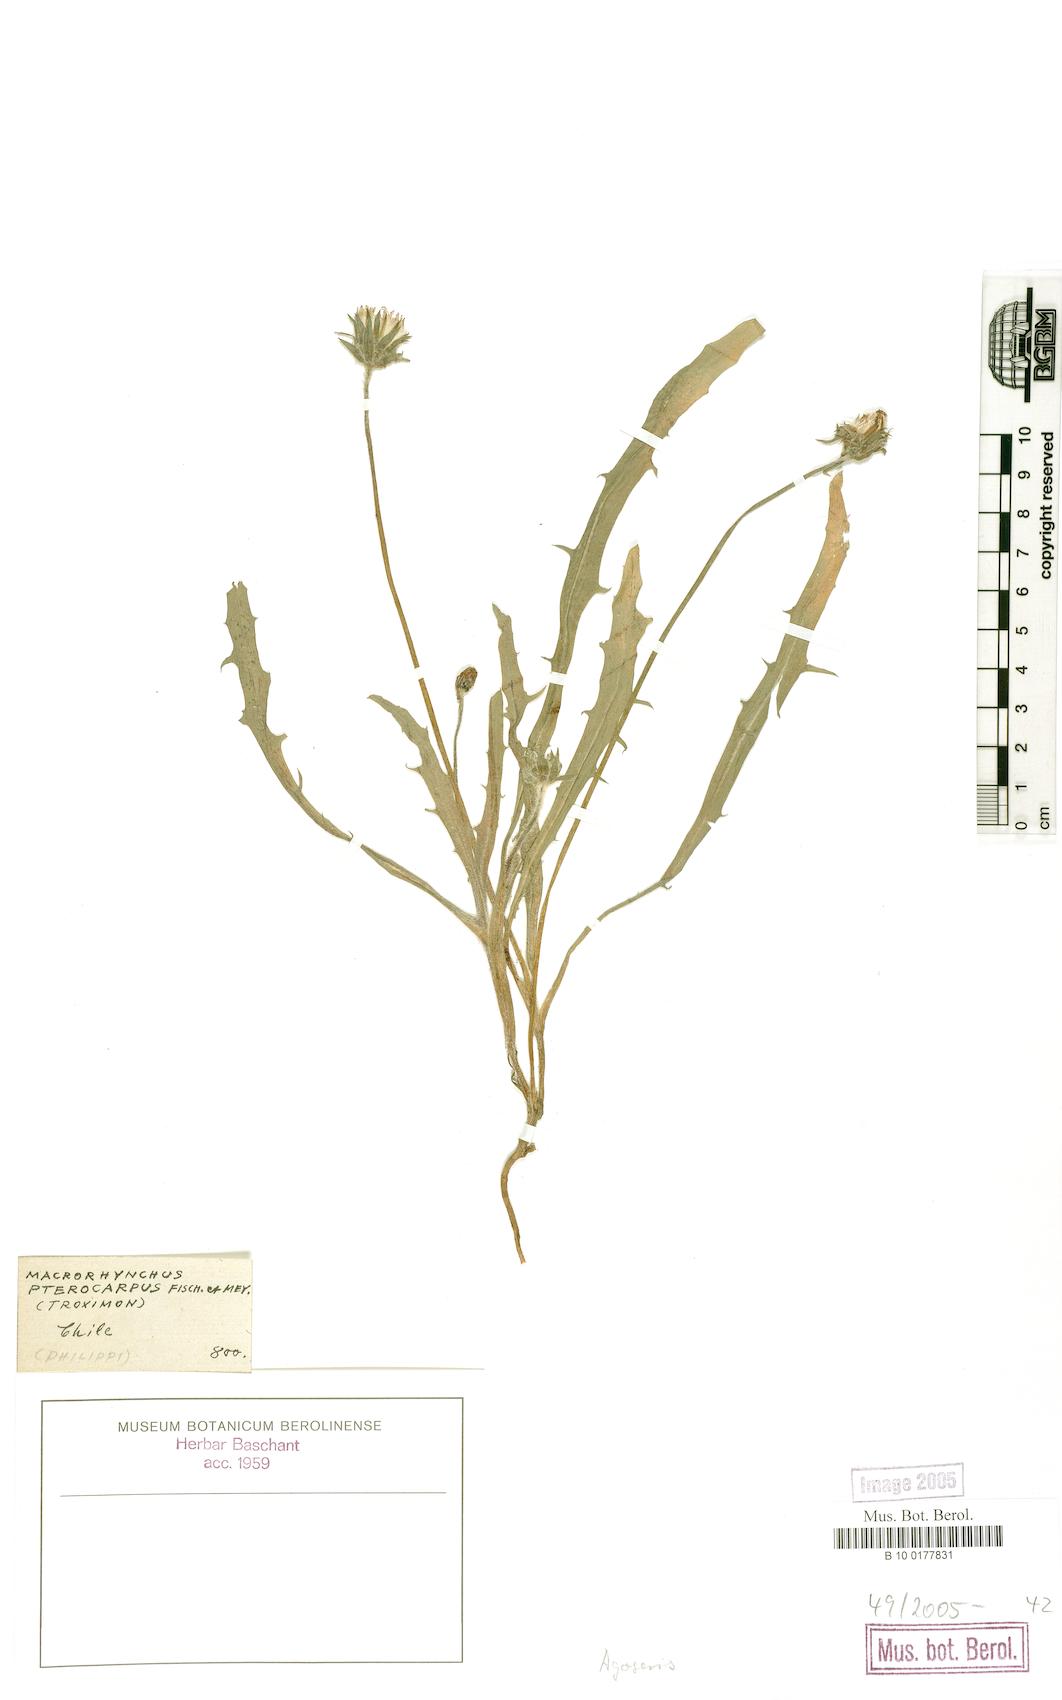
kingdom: Plantae
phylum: Tracheophyta
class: Magnoliopsida
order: Asterales
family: Asteraceae
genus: Agoseris
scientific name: Agoseris coronopifolia
